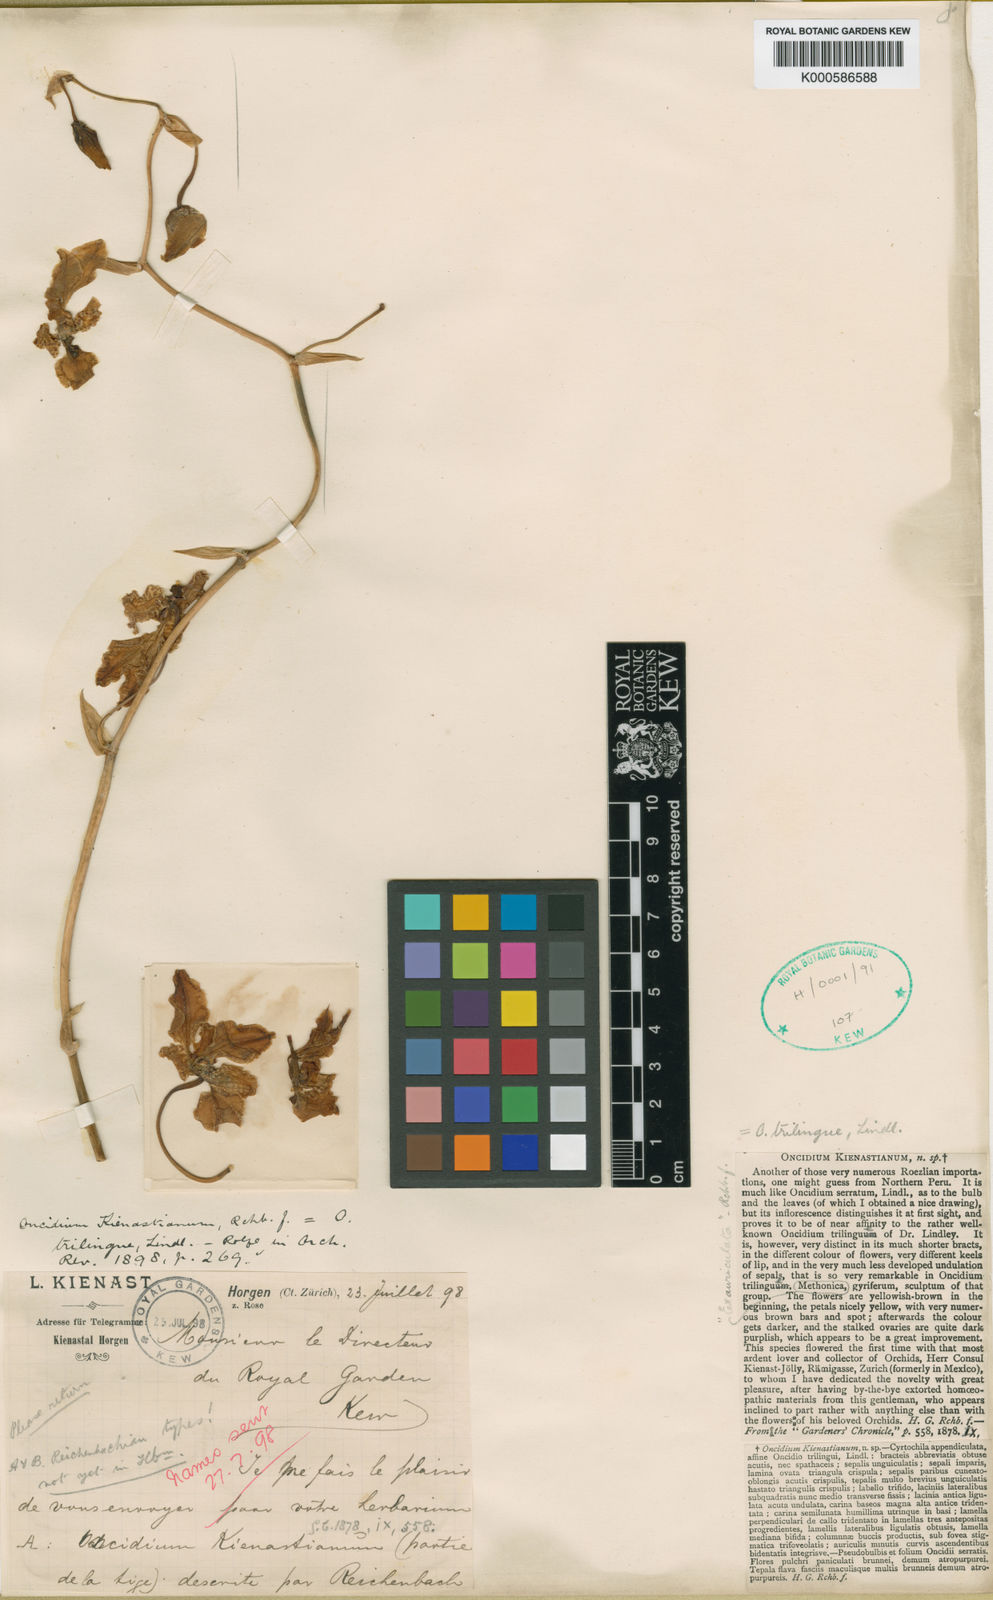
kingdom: Plantae
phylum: Tracheophyta
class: Liliopsida
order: Asparagales
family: Orchidaceae
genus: Cyrtochilum
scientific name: Cyrtochilum trilingue
